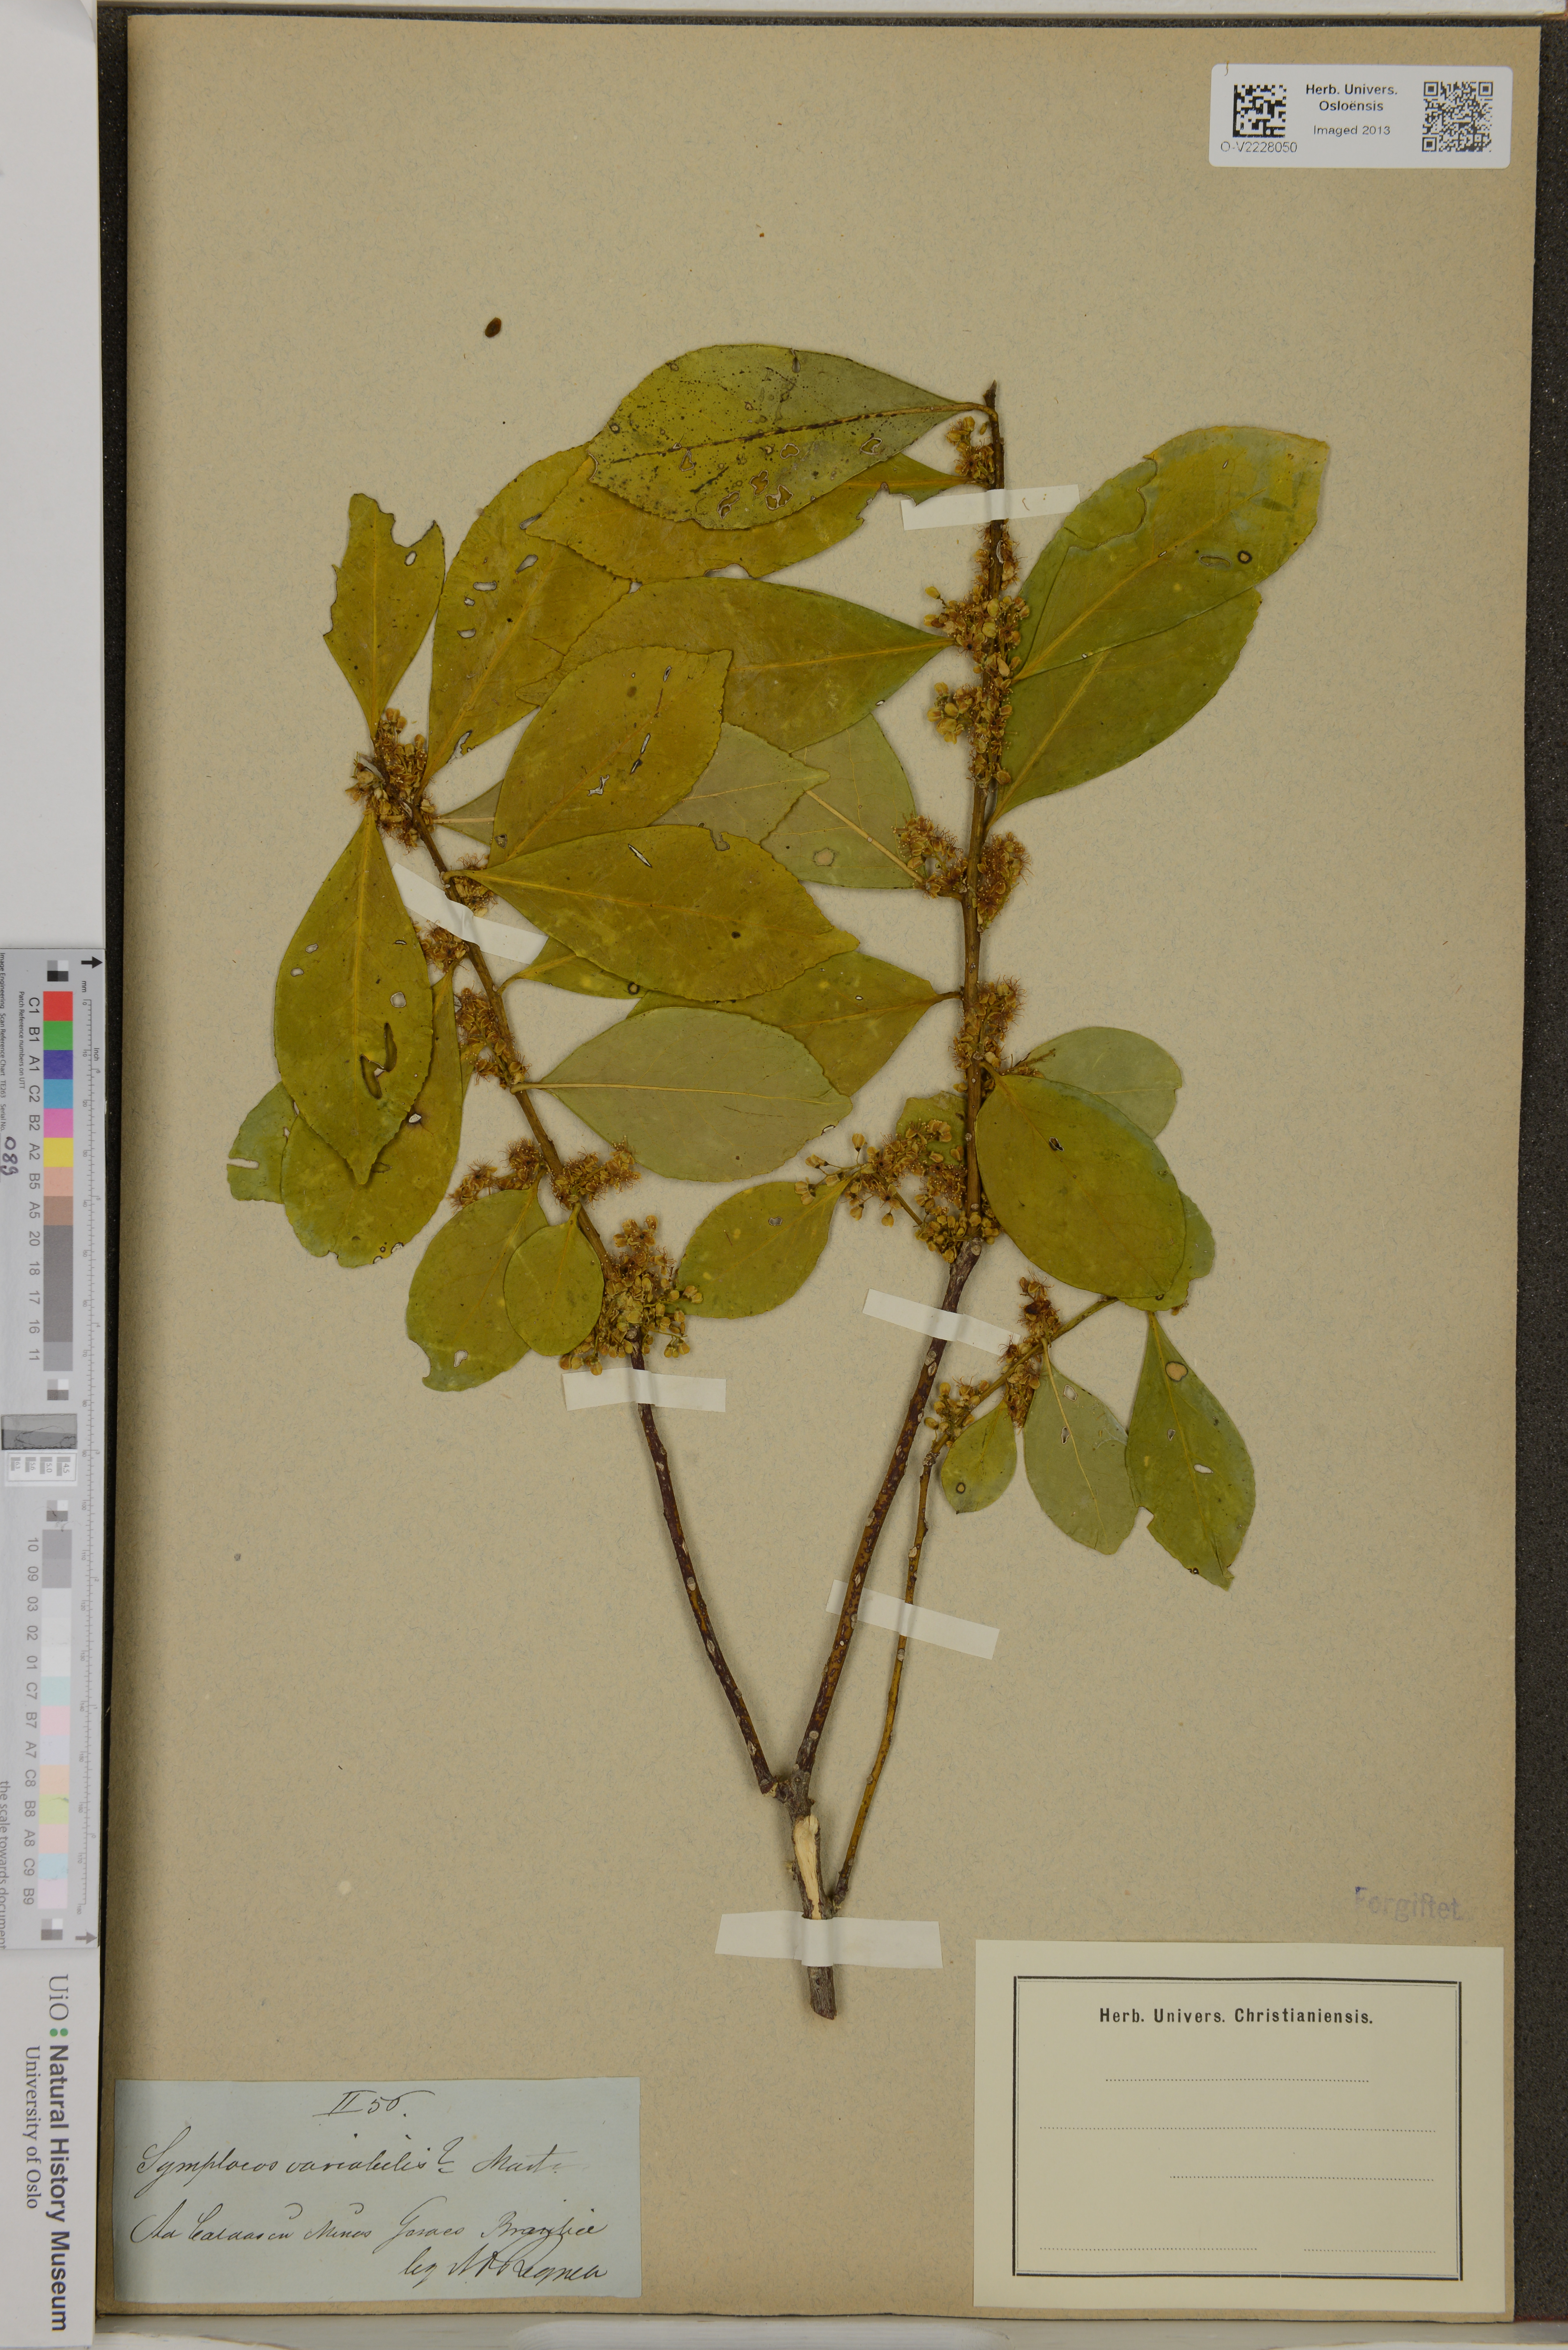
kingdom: Plantae
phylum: Tracheophyta
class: Magnoliopsida
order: Ericales
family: Symplocaceae
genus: Symplocos
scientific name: Symplocos variabilis
